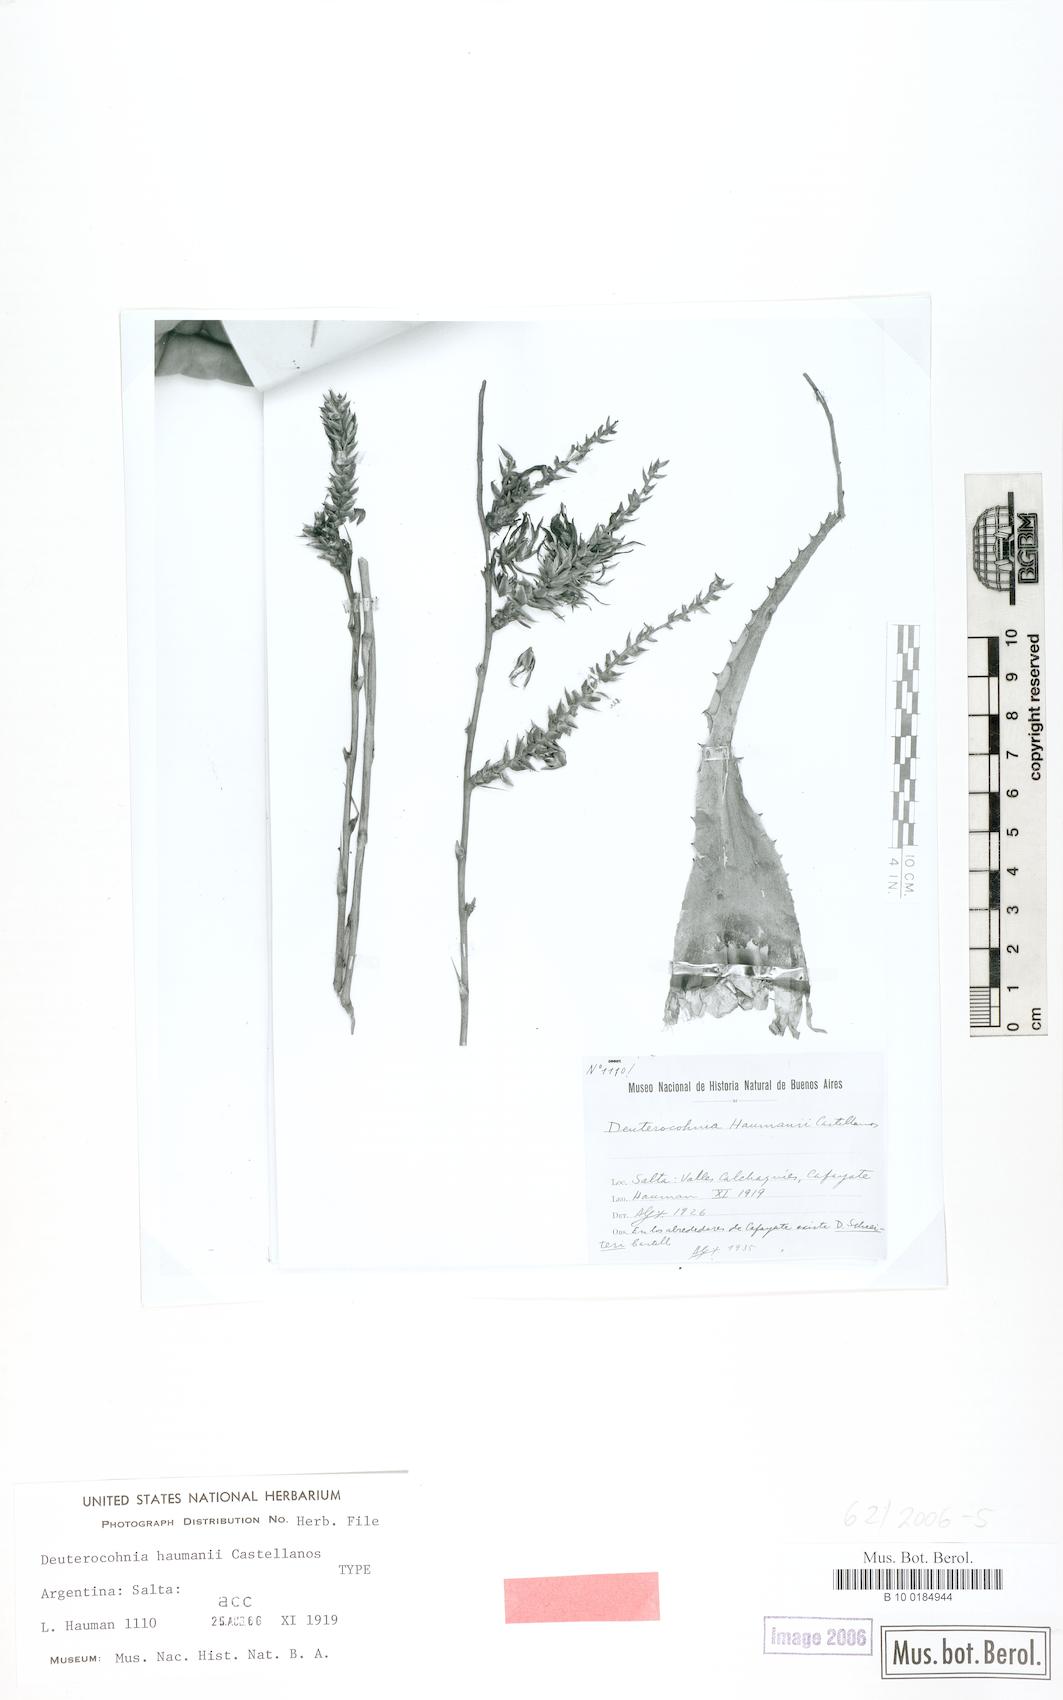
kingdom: Plantae
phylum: Tracheophyta
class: Liliopsida
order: Poales
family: Bromeliaceae
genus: Deuterocohnia
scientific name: Deuterocohnia haumanii
